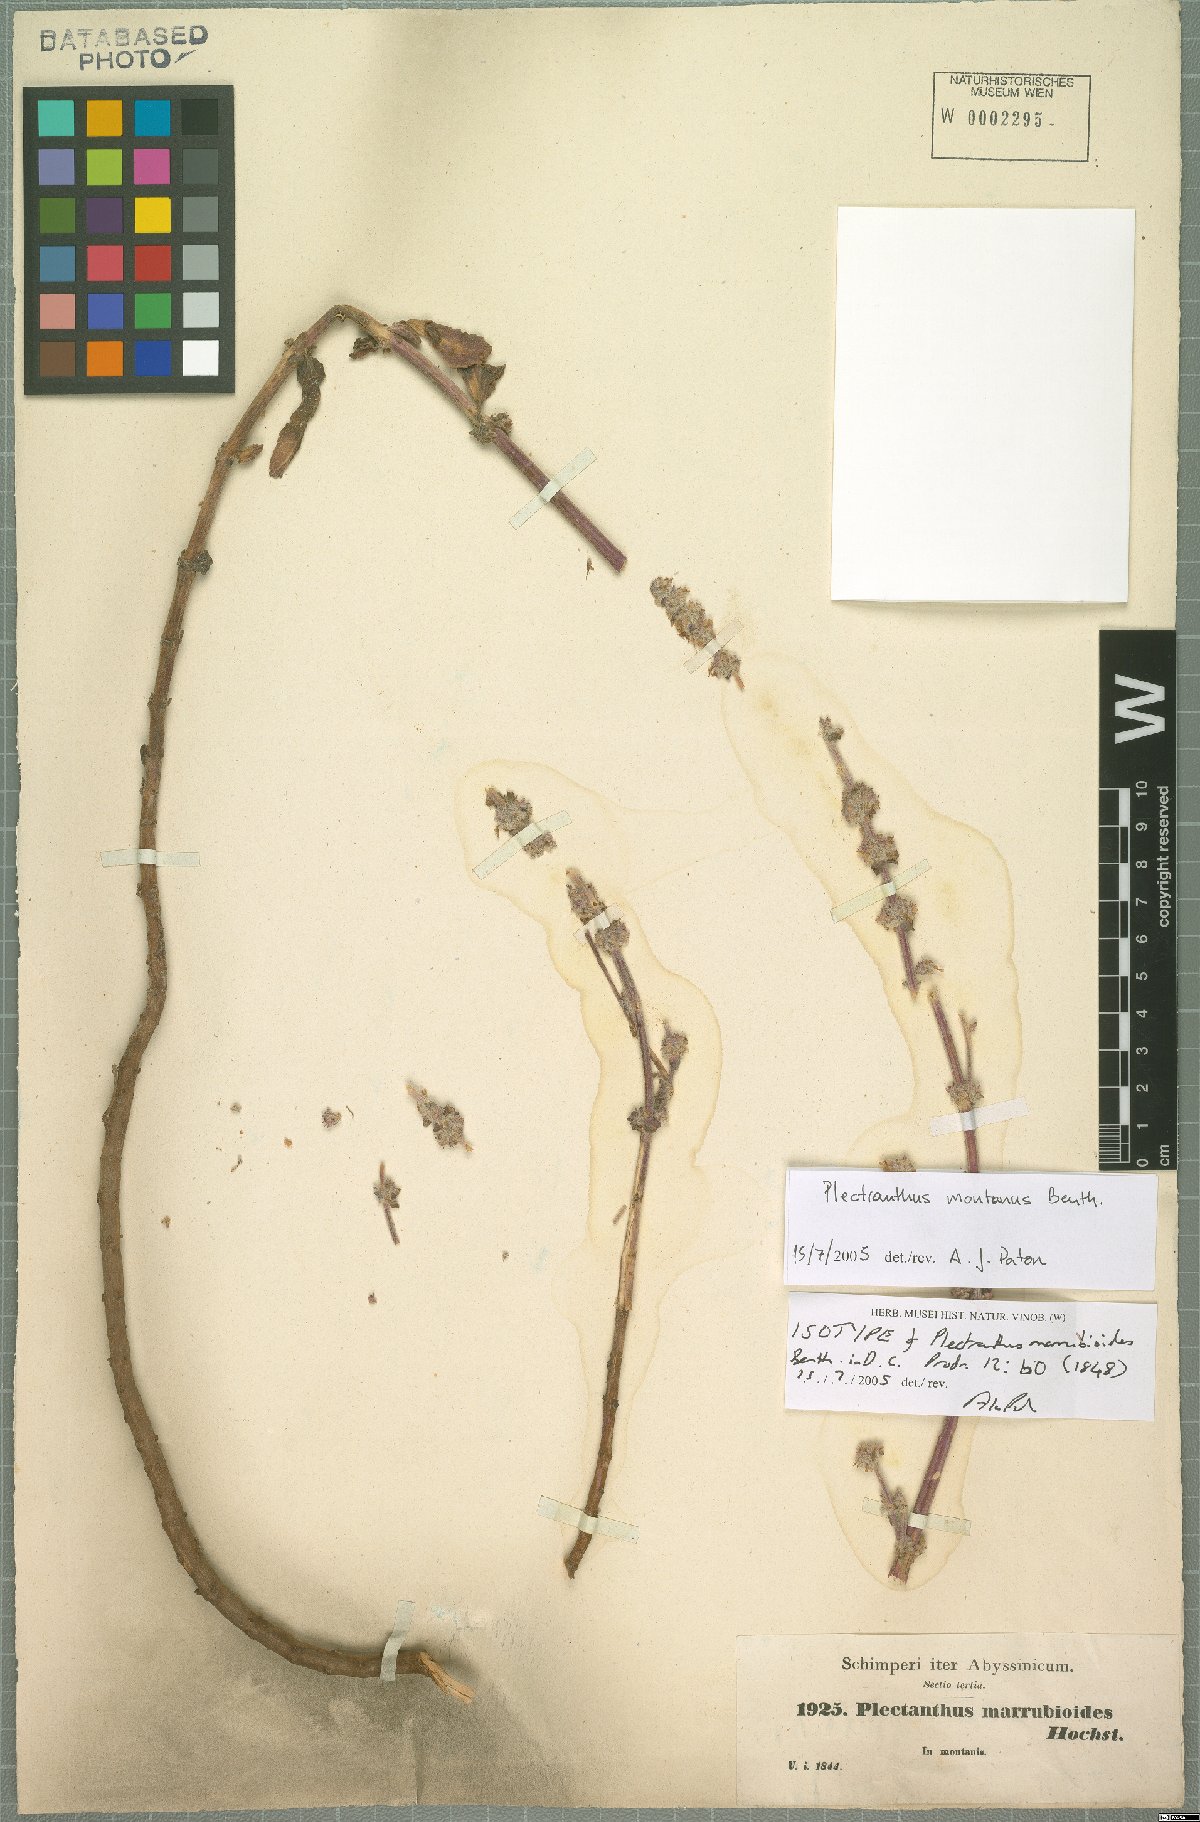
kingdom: Plantae
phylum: Tracheophyta
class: Magnoliopsida
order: Lamiales
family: Lamiaceae
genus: Coleus
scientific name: Coleus cylindraceus
